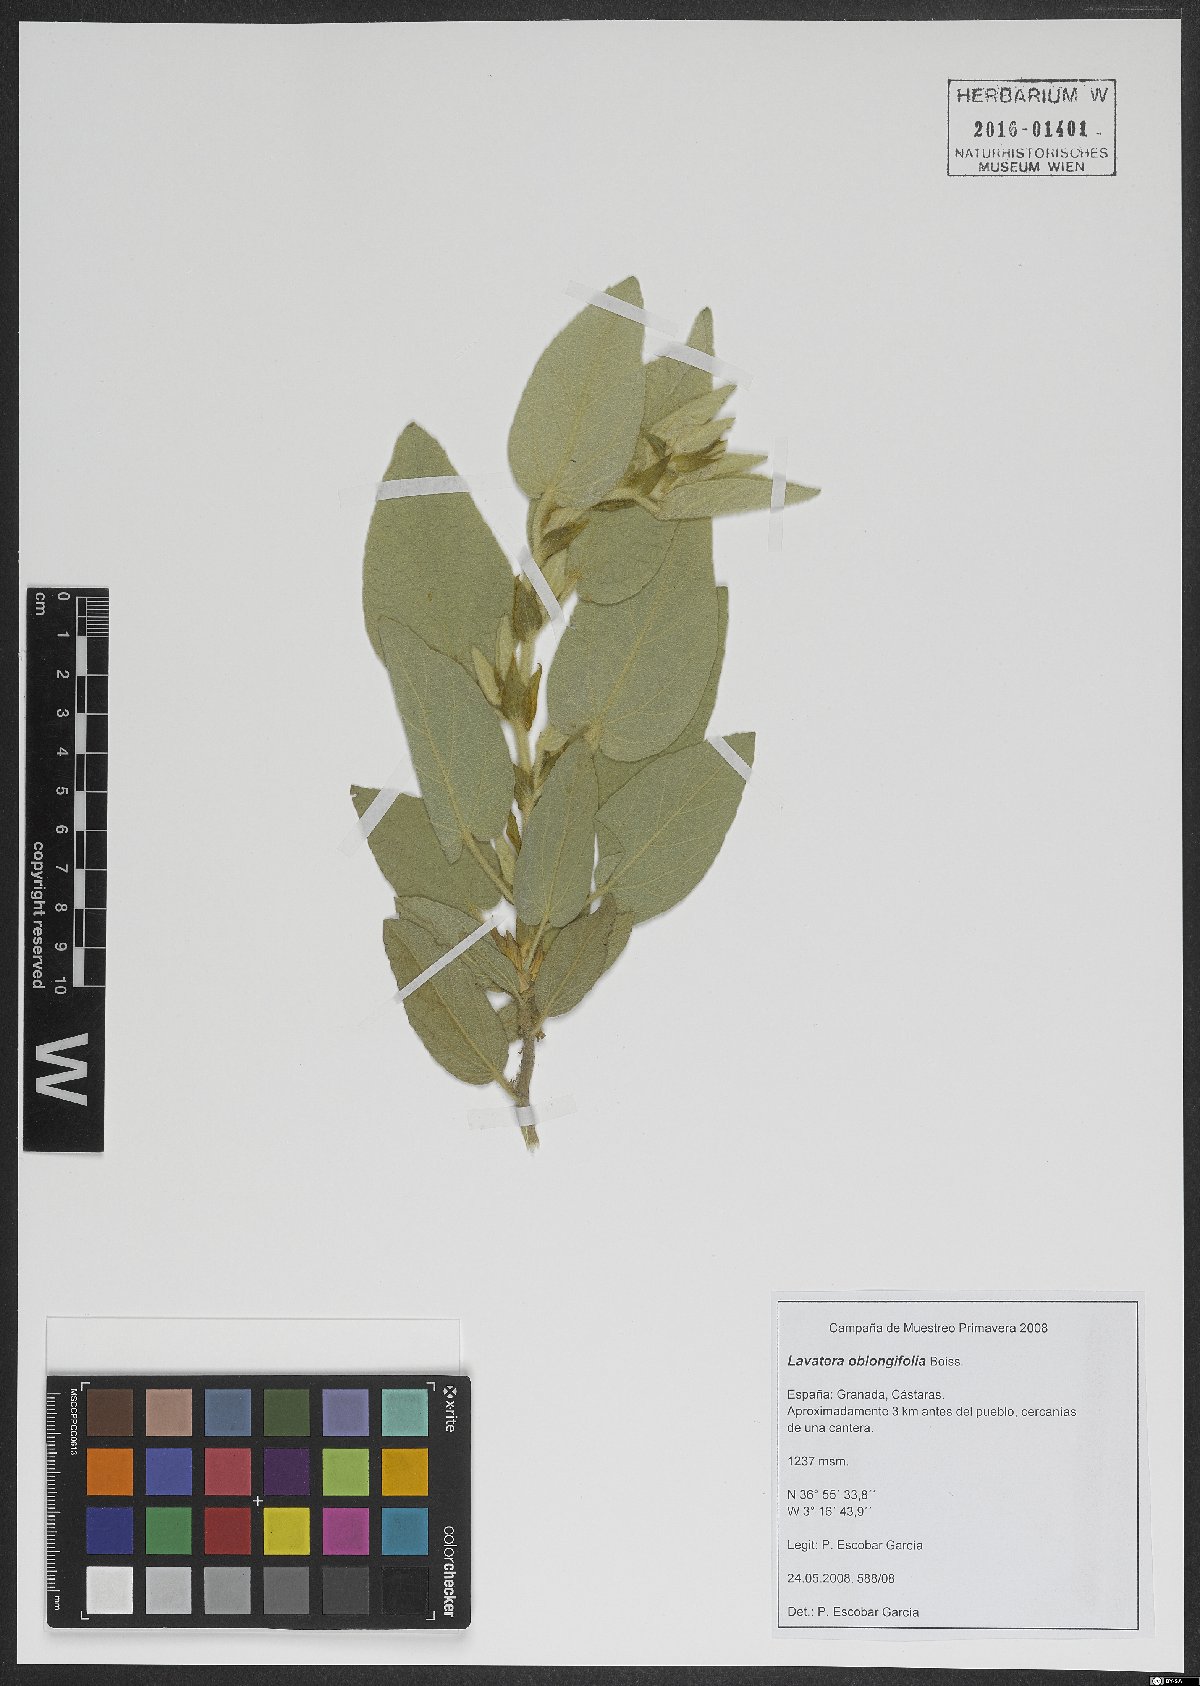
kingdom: Plantae
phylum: Tracheophyta
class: Magnoliopsida
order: Malvales
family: Malvaceae
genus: Malva
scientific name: Malva oblongifolia
